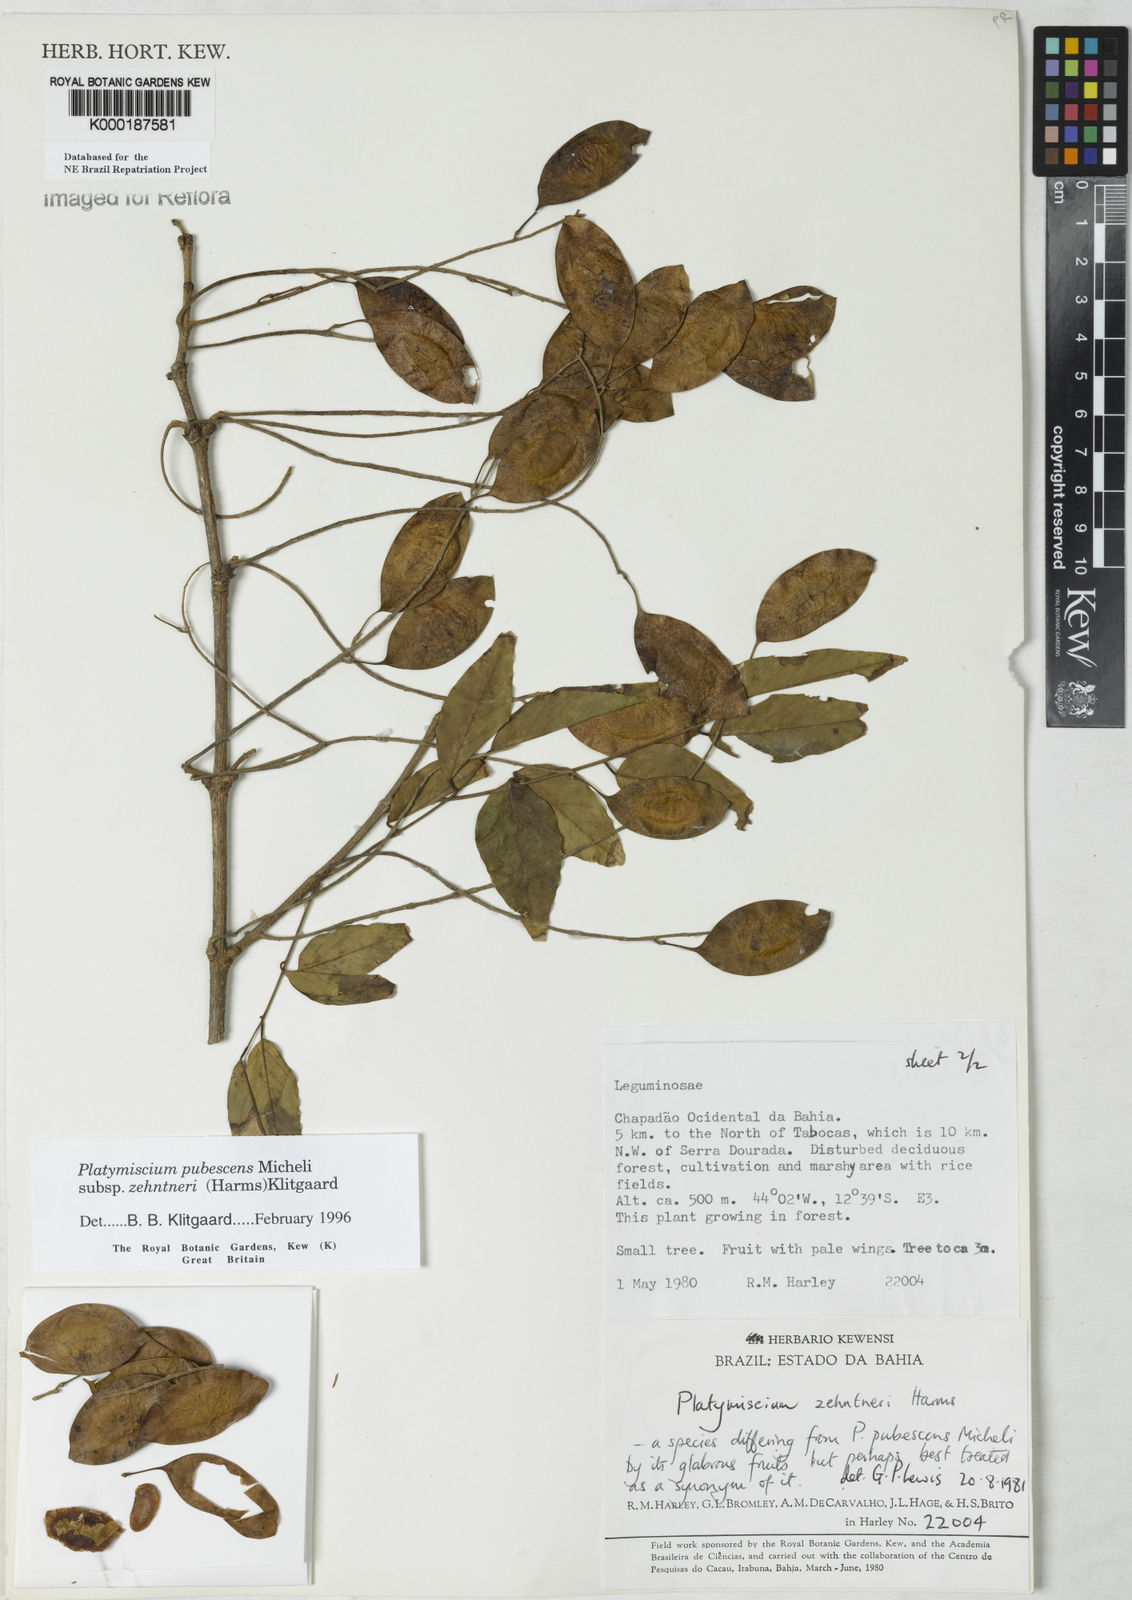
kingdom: Plantae
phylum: Tracheophyta
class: Magnoliopsida
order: Fabales
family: Fabaceae
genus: Platymiscium
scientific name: Platymiscium pubescens
